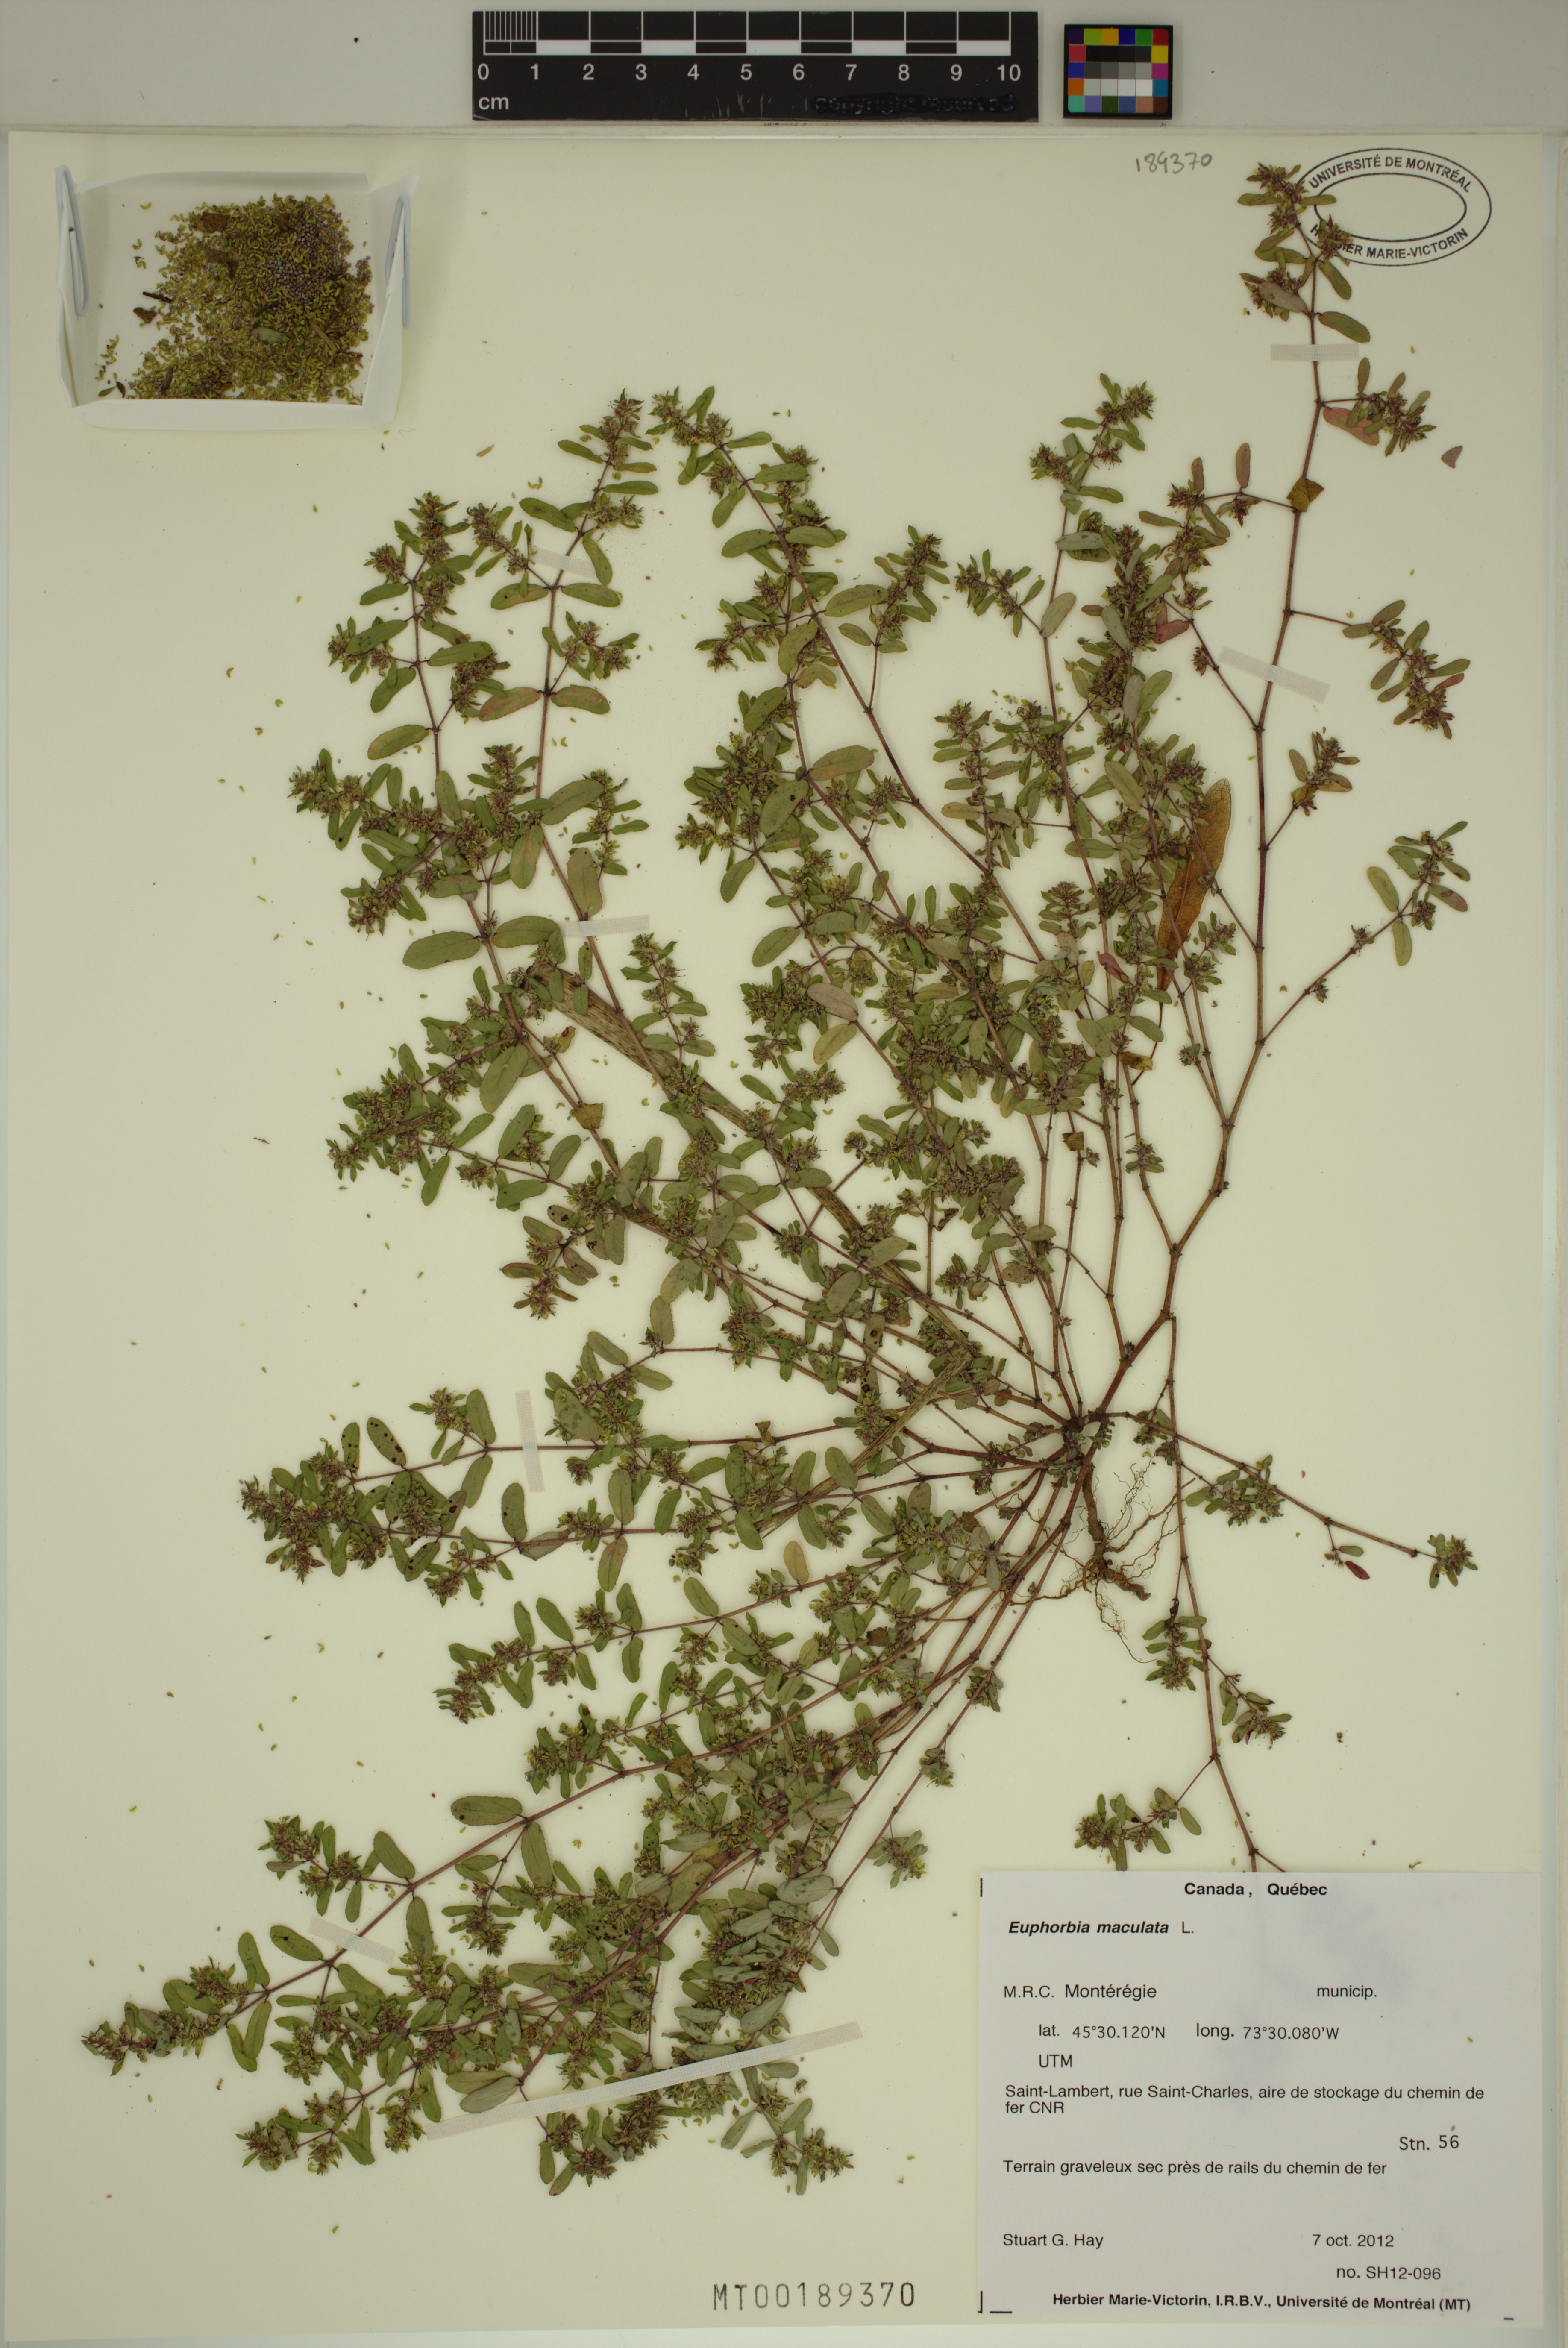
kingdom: Plantae
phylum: Tracheophyta
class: Magnoliopsida
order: Malpighiales
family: Euphorbiaceae
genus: Euphorbia
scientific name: Euphorbia maculata
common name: Spotted spurge
